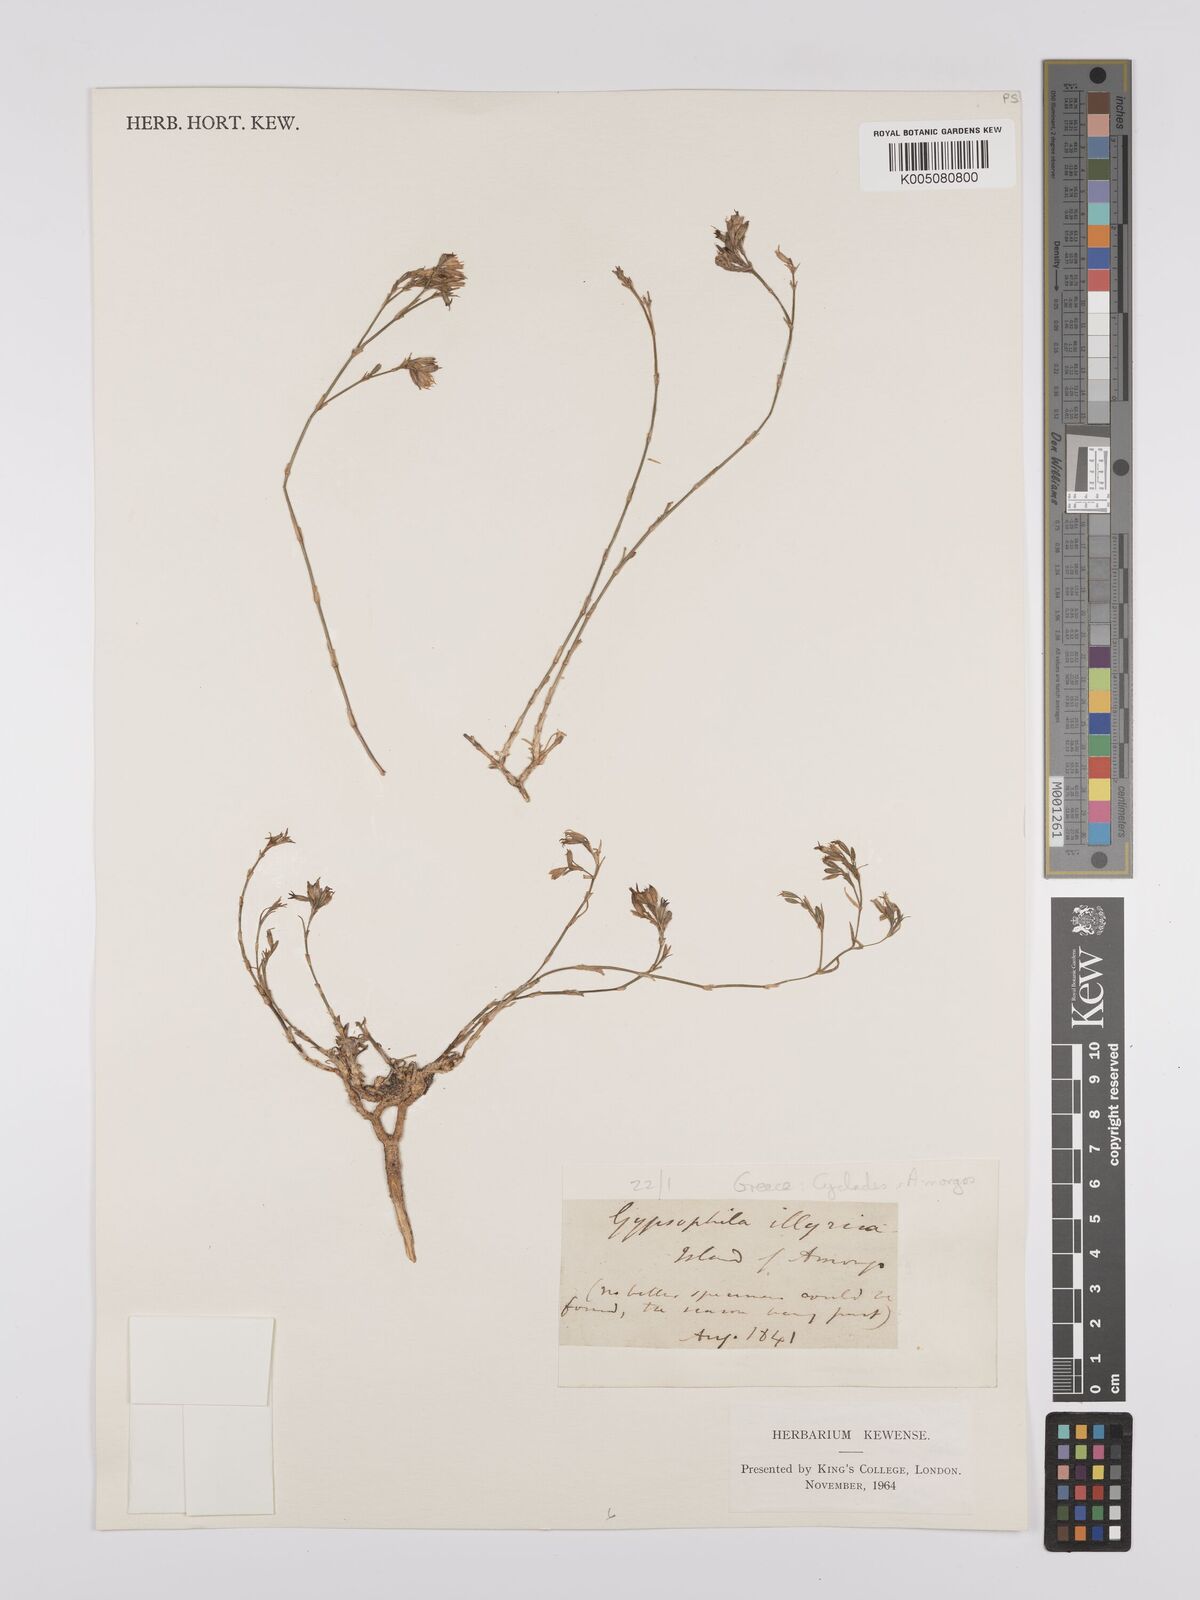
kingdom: Plantae
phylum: Tracheophyta
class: Magnoliopsida
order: Caryophyllales
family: Caryophyllaceae
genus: Gypsophila
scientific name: Gypsophila
